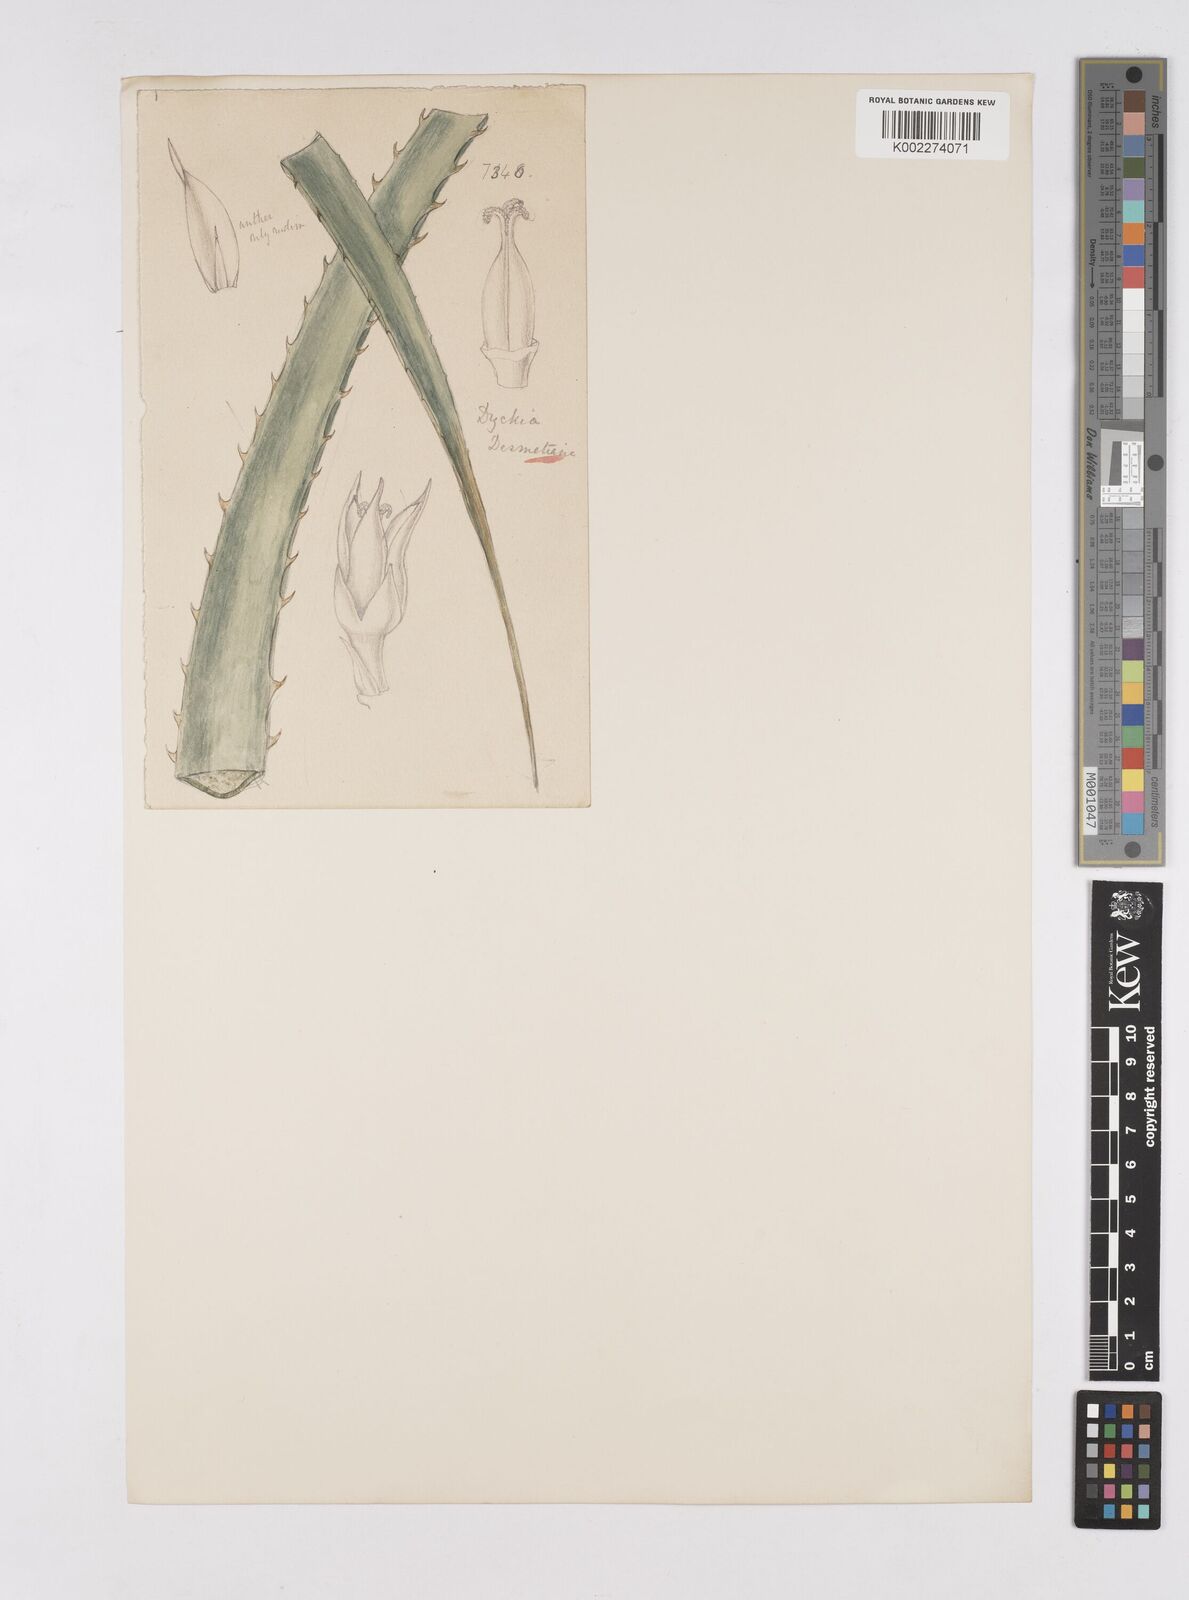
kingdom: Plantae
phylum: Tracheophyta
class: Liliopsida
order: Poales
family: Bromeliaceae
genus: Hechtia
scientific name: Hechtia
